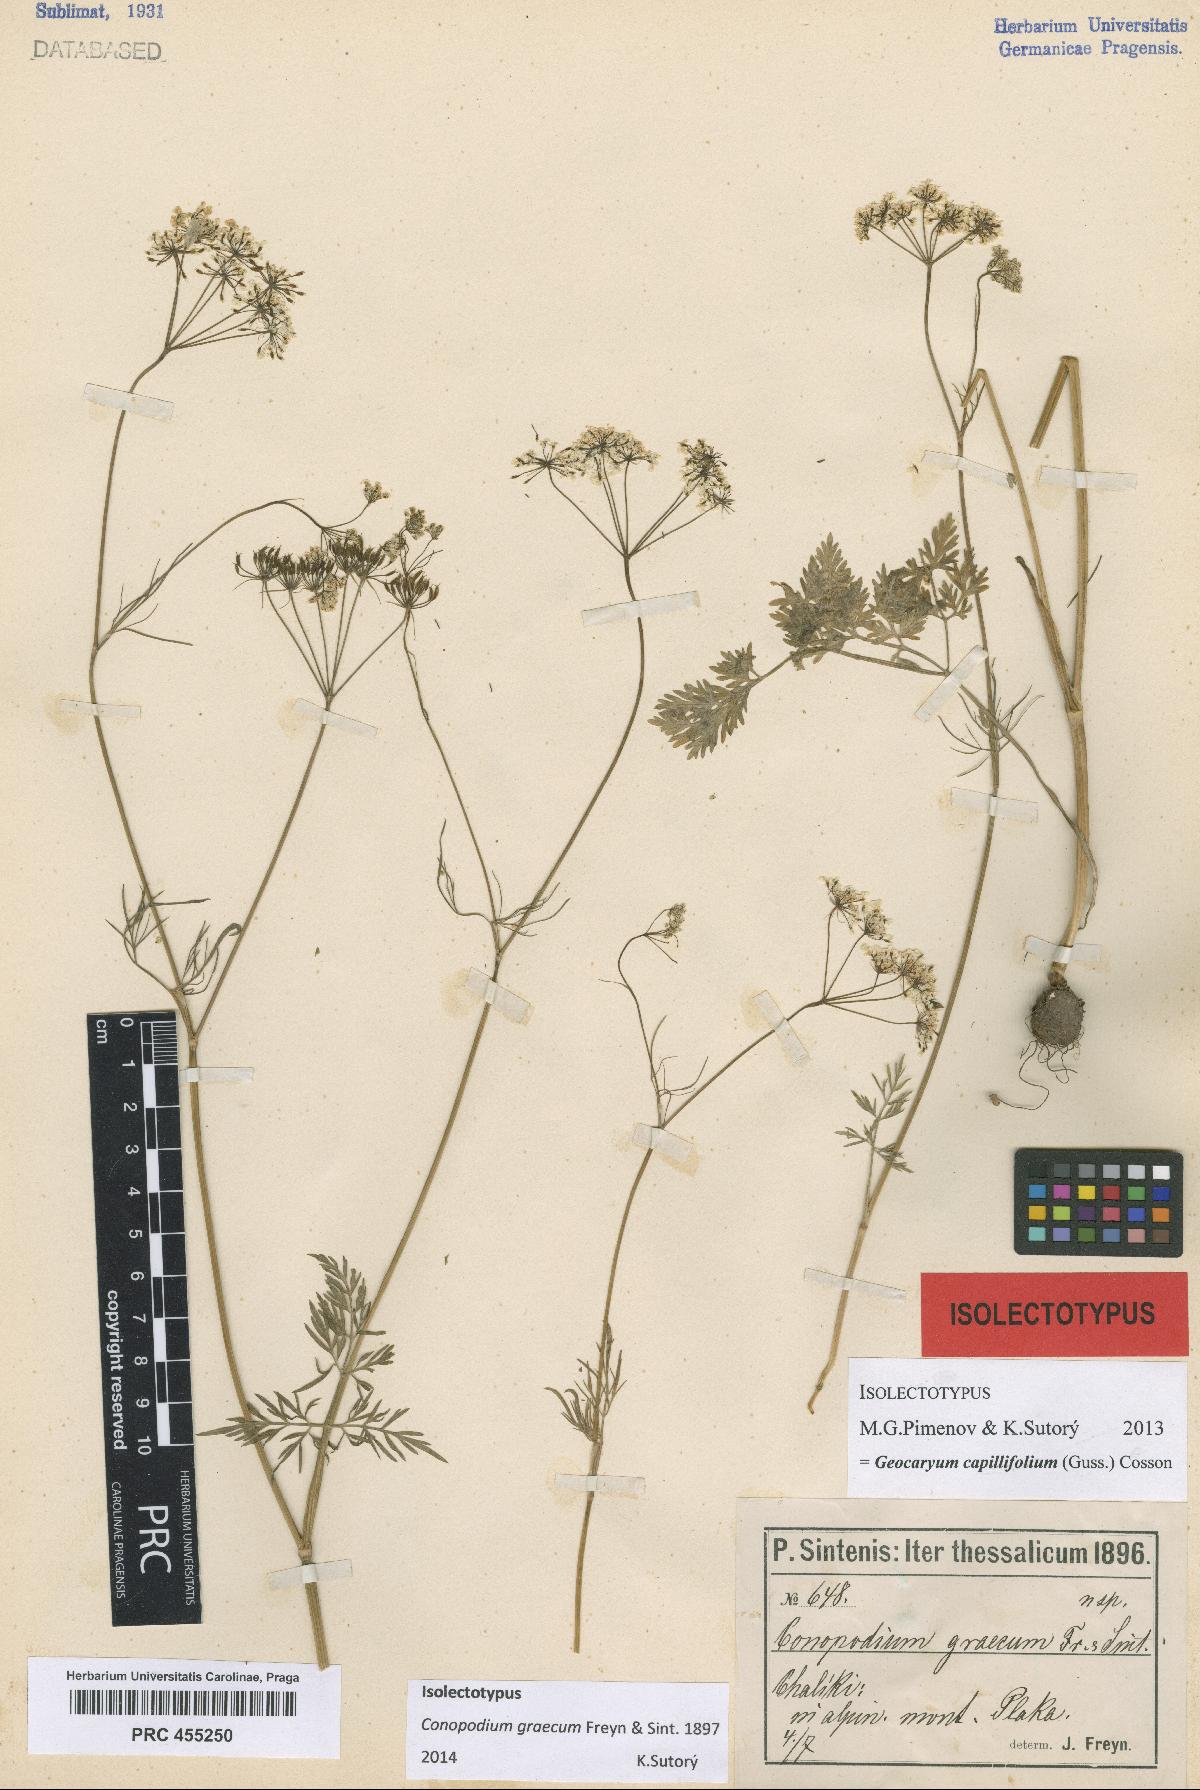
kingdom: Plantae
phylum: Tracheophyta
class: Magnoliopsida
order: Apiales
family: Apiaceae
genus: Geocaryum
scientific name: Geocaryum capillifolium
